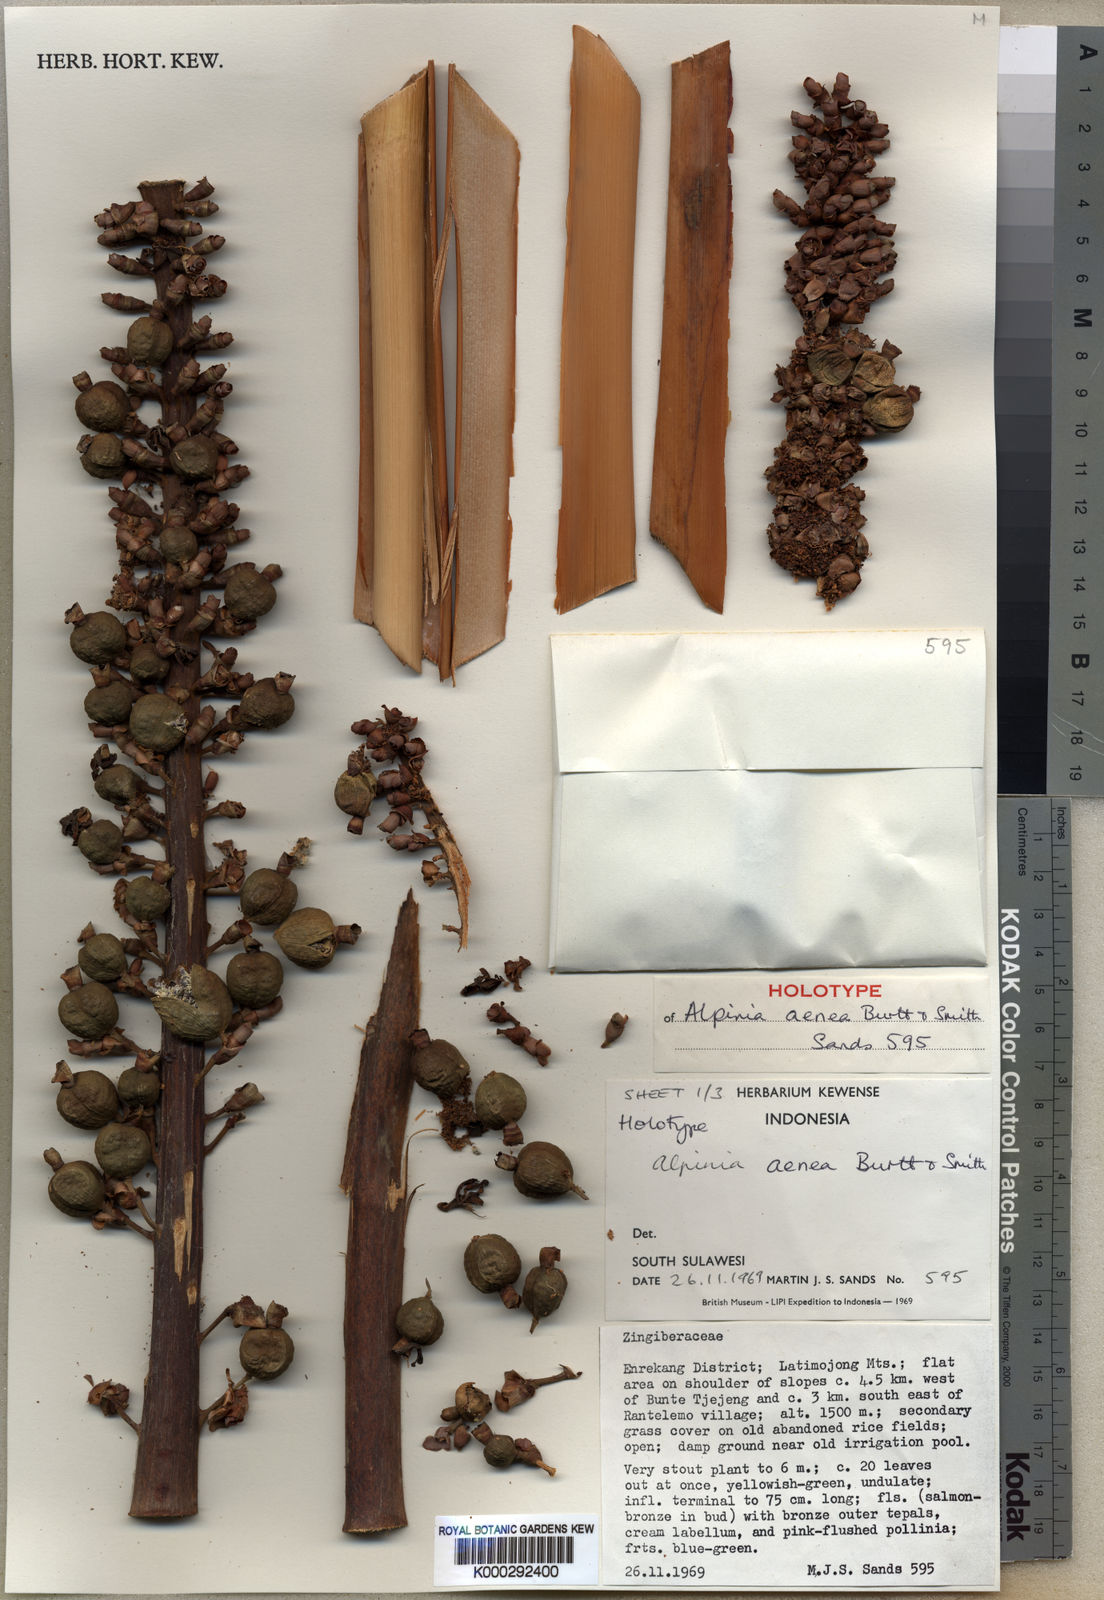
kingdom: Plantae
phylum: Tracheophyta
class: Liliopsida
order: Zingiberales
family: Zingiberaceae
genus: Alpinia
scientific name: Alpinia aenea
